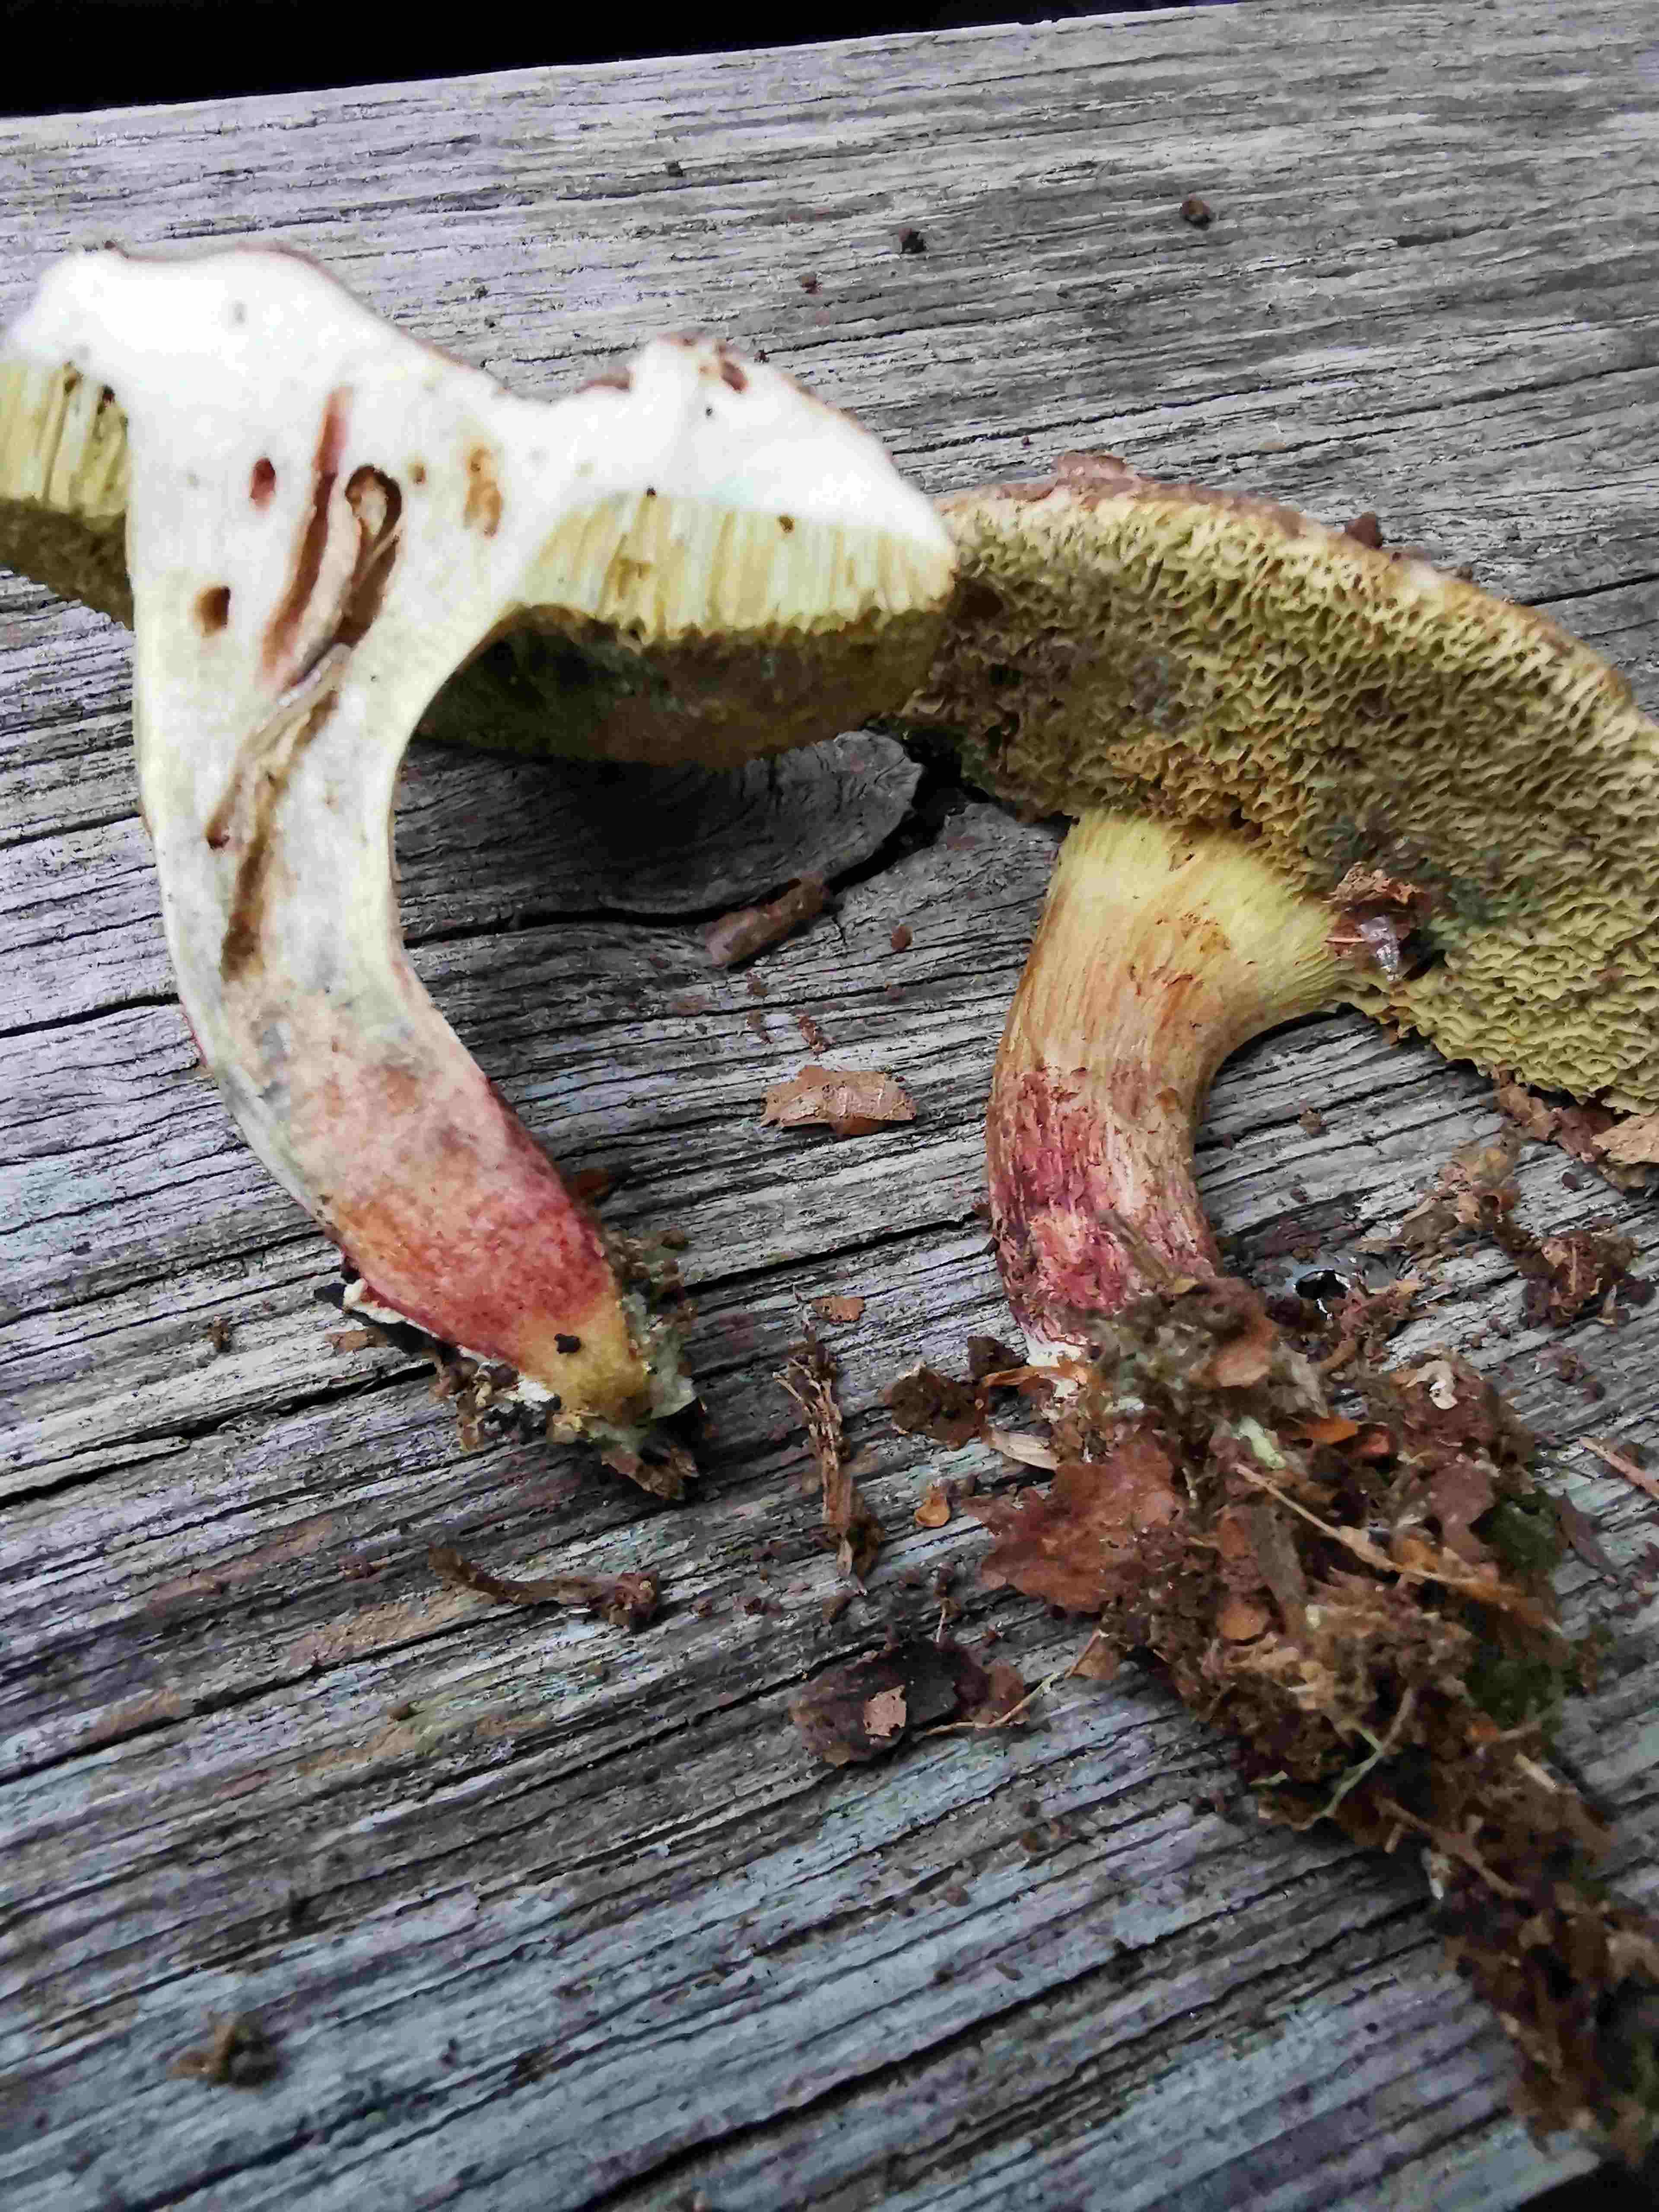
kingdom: Fungi
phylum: Basidiomycota
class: Agaricomycetes
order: Boletales
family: Boletaceae
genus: Xerocomellus
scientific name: Xerocomellus cisalpinus
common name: finsprukken rørhat
